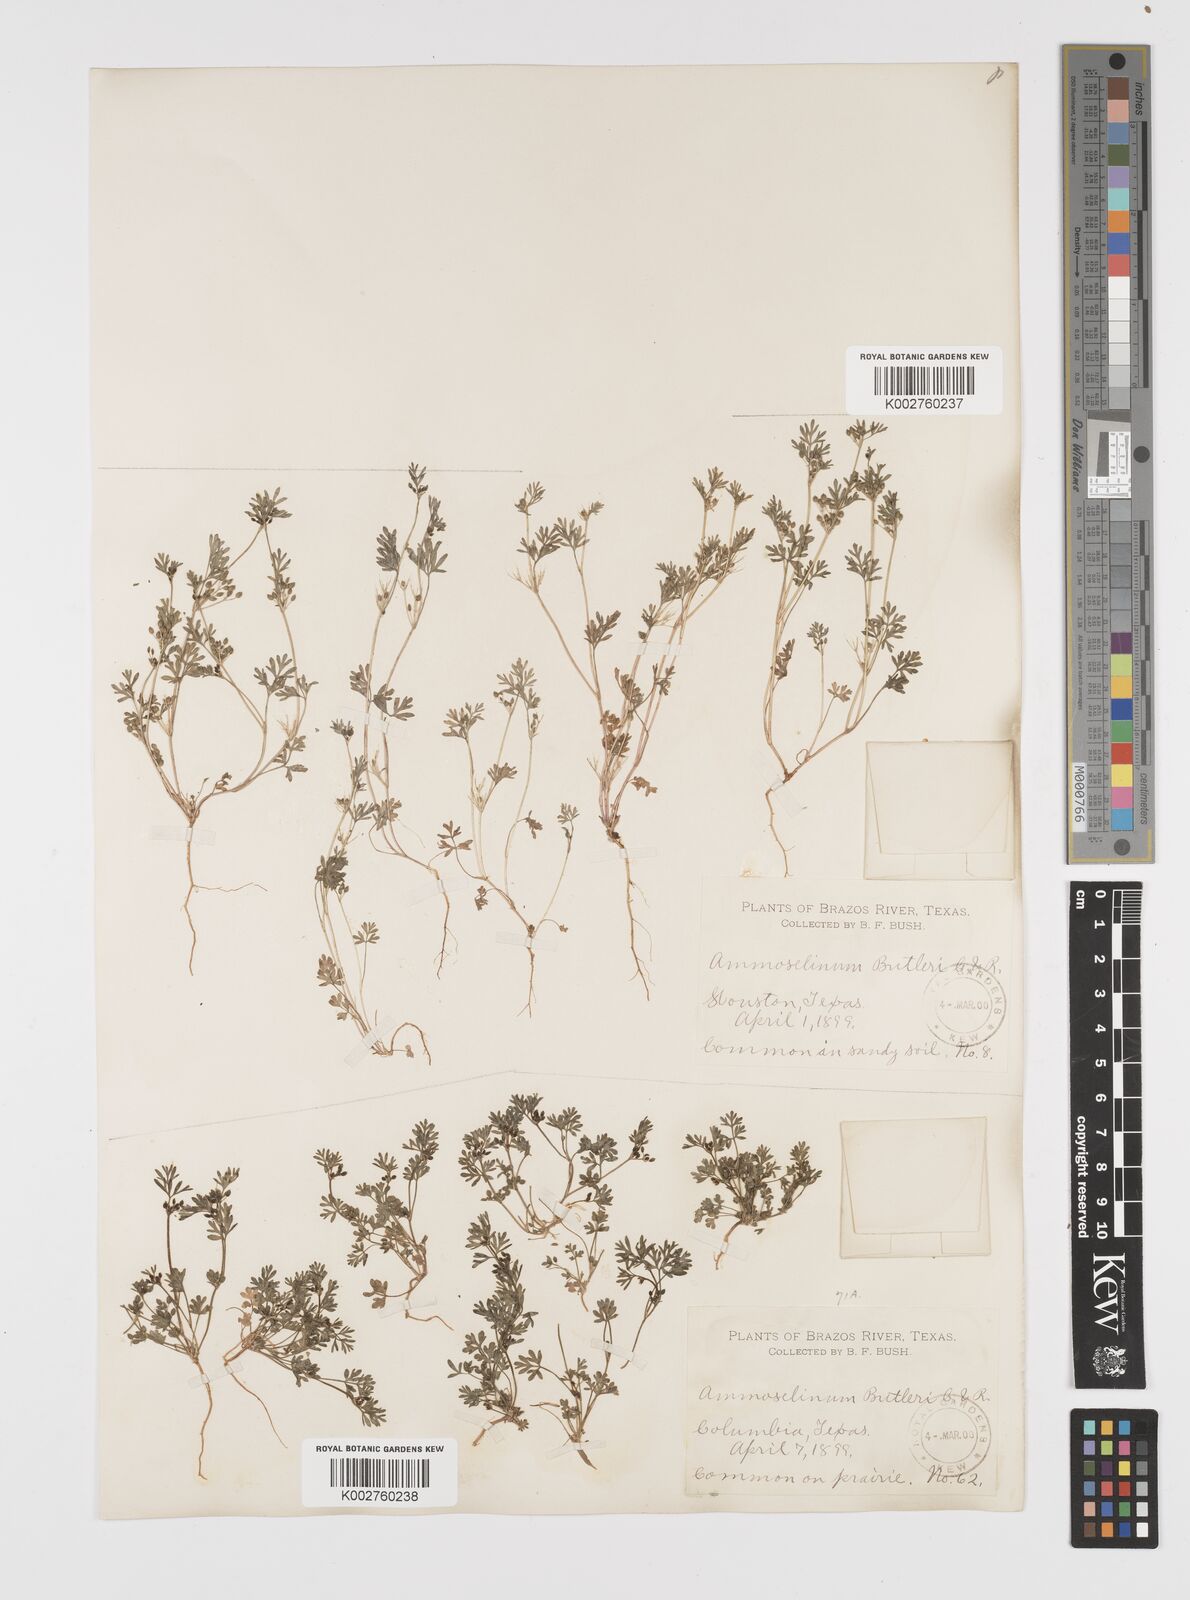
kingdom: Plantae
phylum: Tracheophyta
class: Magnoliopsida
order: Apiales
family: Apiaceae
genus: Ammoselinum
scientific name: Ammoselinum butleri
